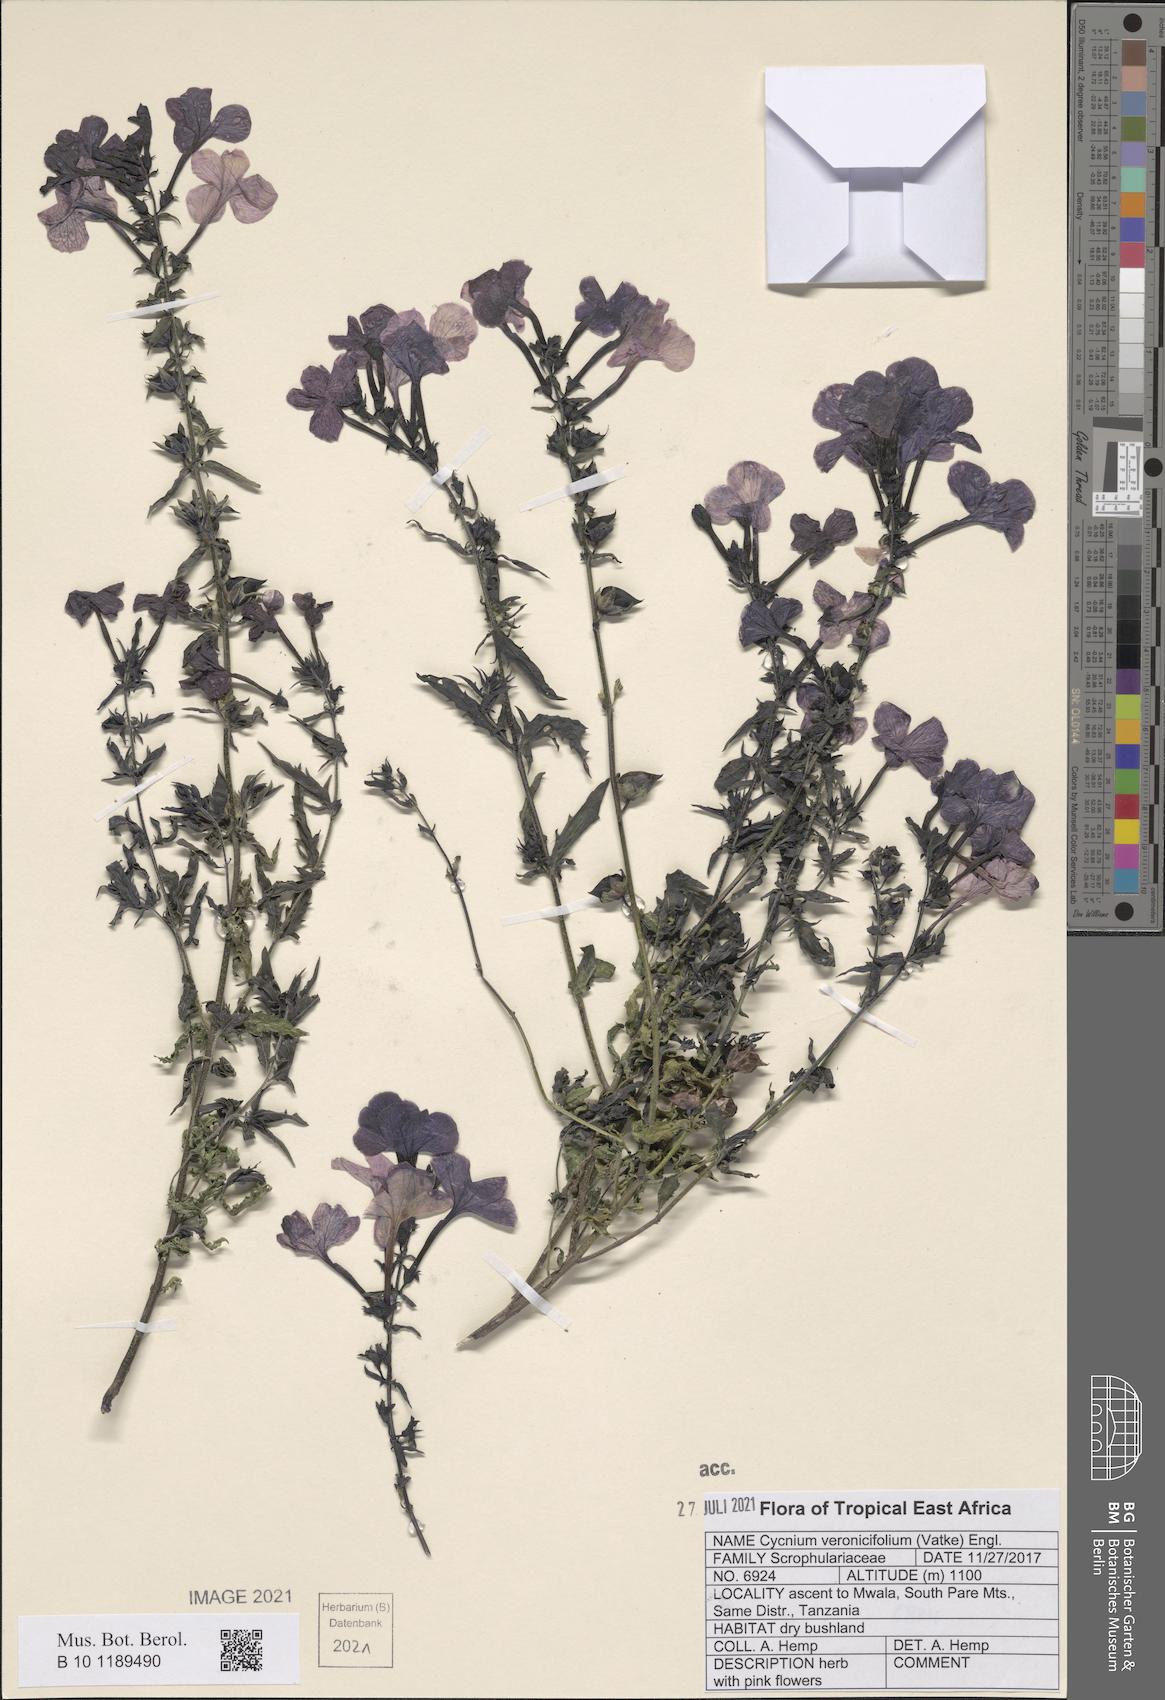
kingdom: Plantae
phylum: Tracheophyta
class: Magnoliopsida
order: Lamiales
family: Orobanchaceae
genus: Cycnium
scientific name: Cycnium veronicifolium
